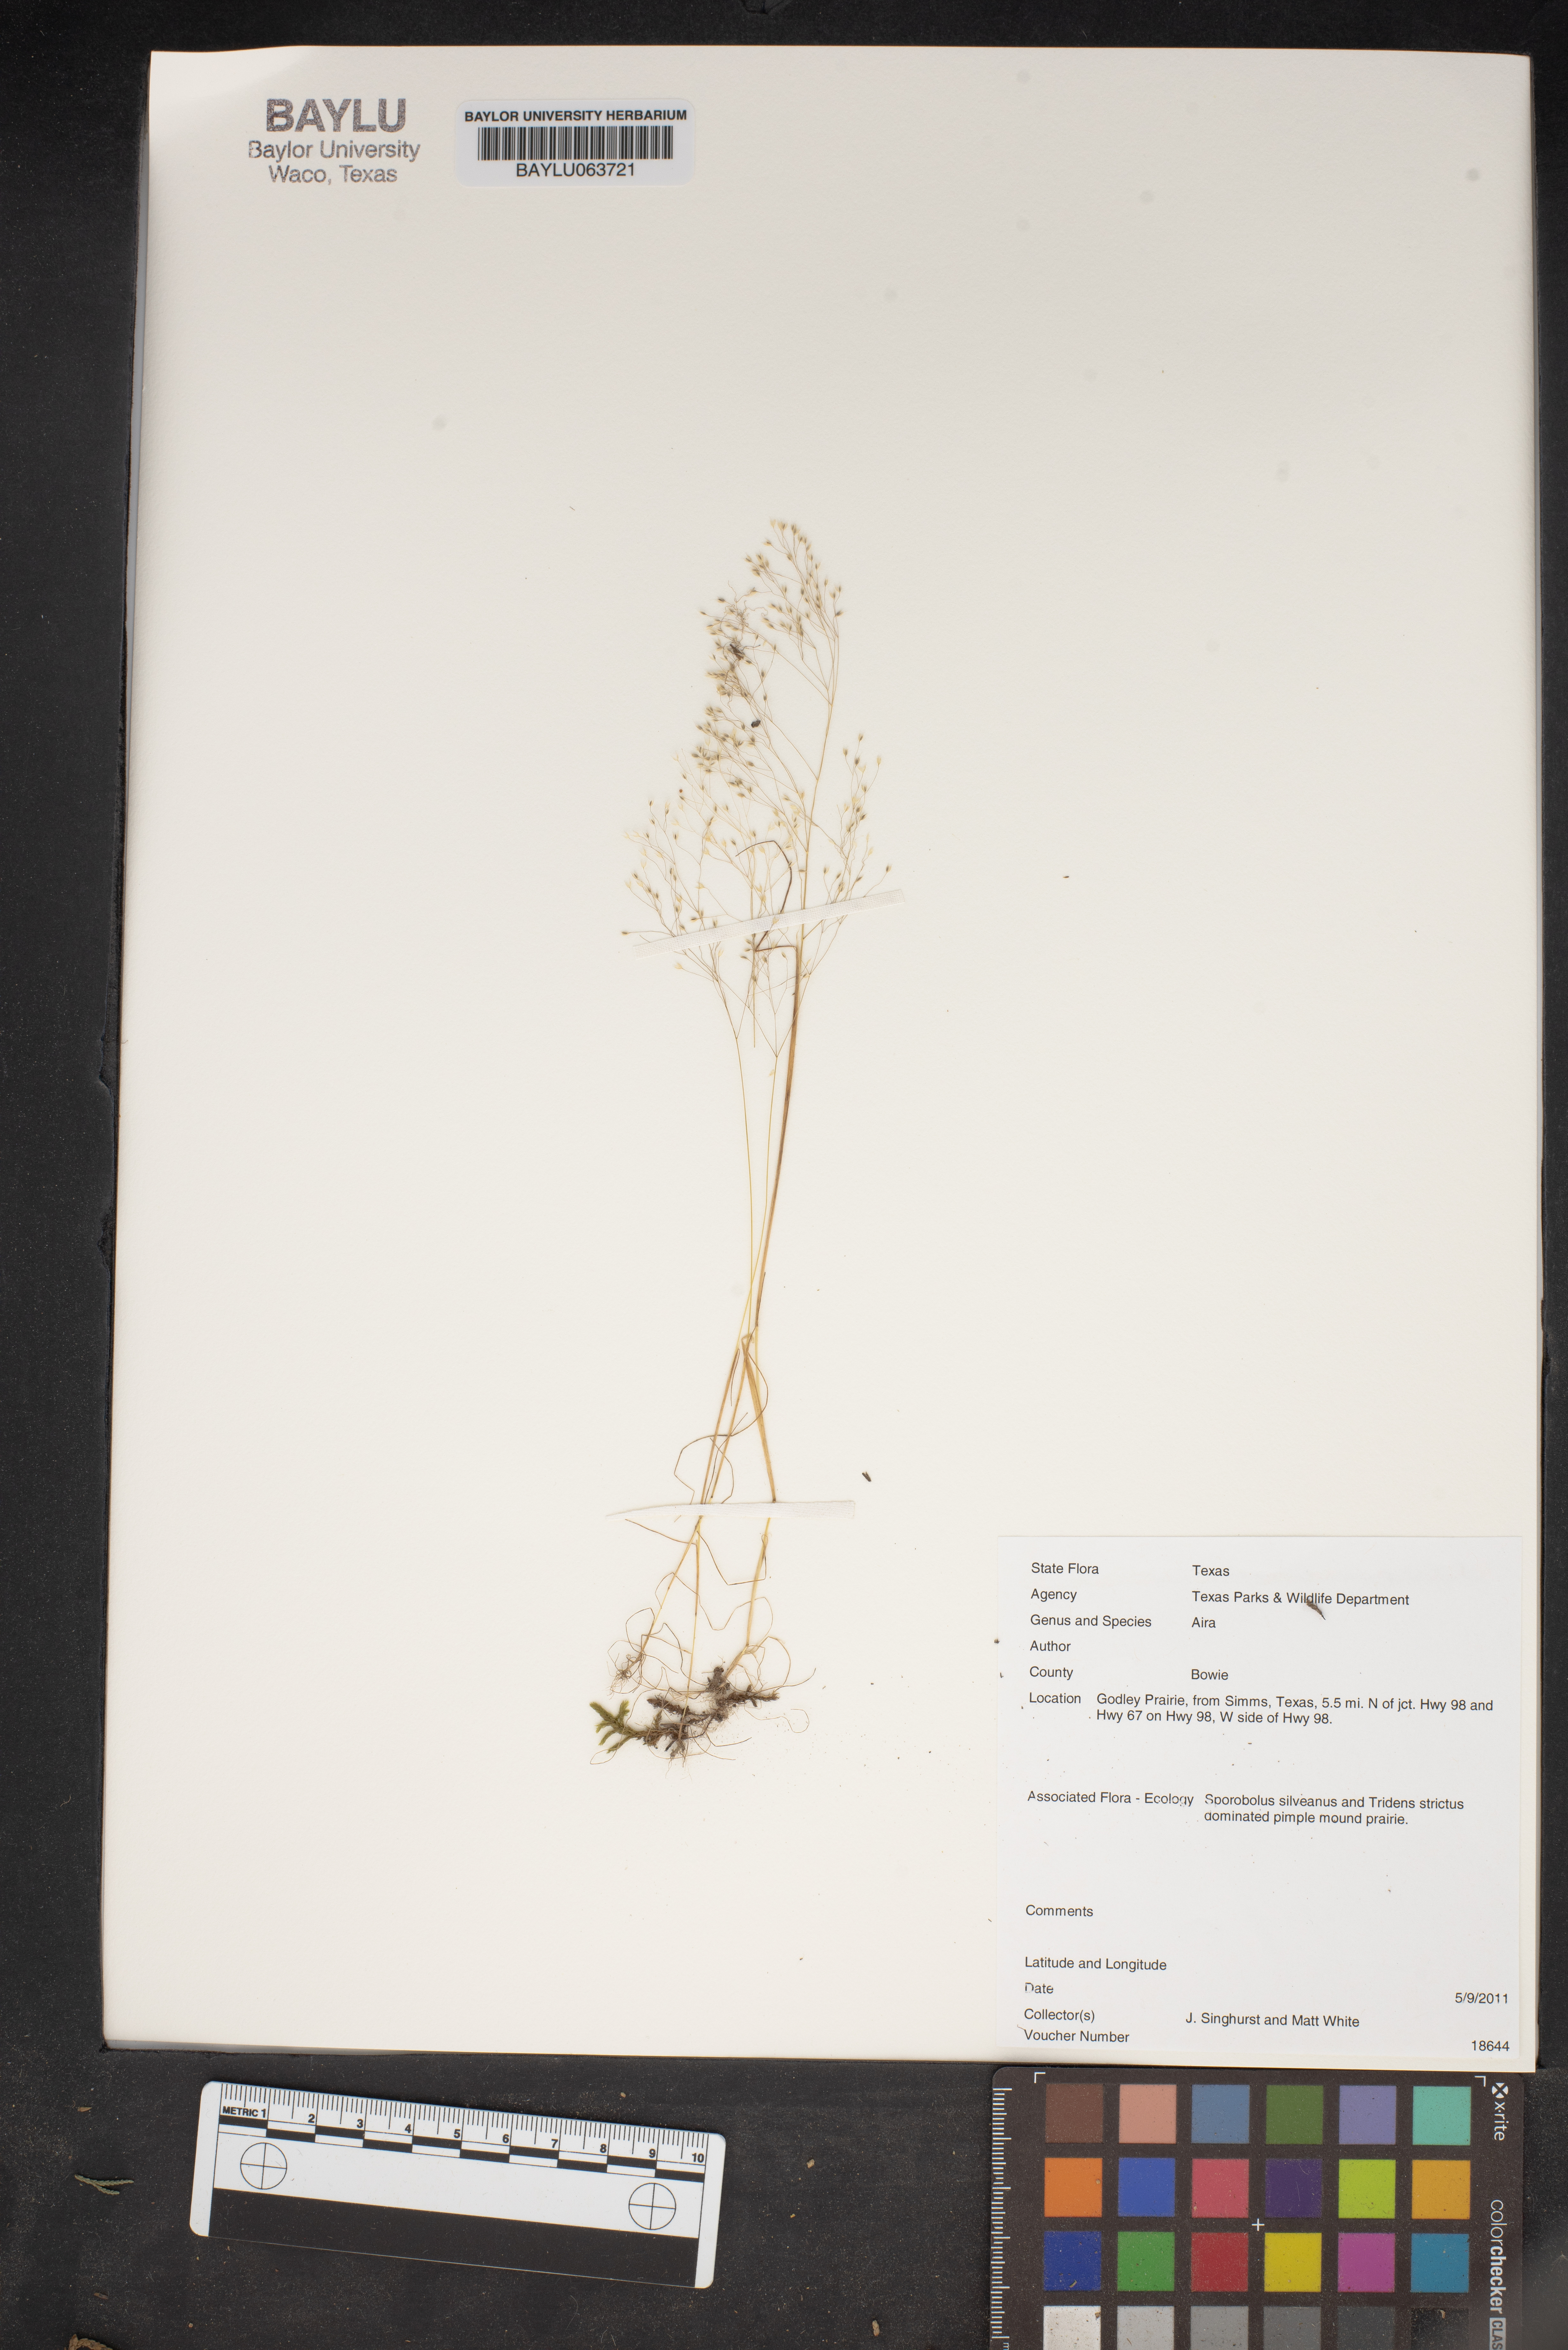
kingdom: Plantae
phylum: Tracheophyta
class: Liliopsida
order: Poales
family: Poaceae
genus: Aira
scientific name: Aira
